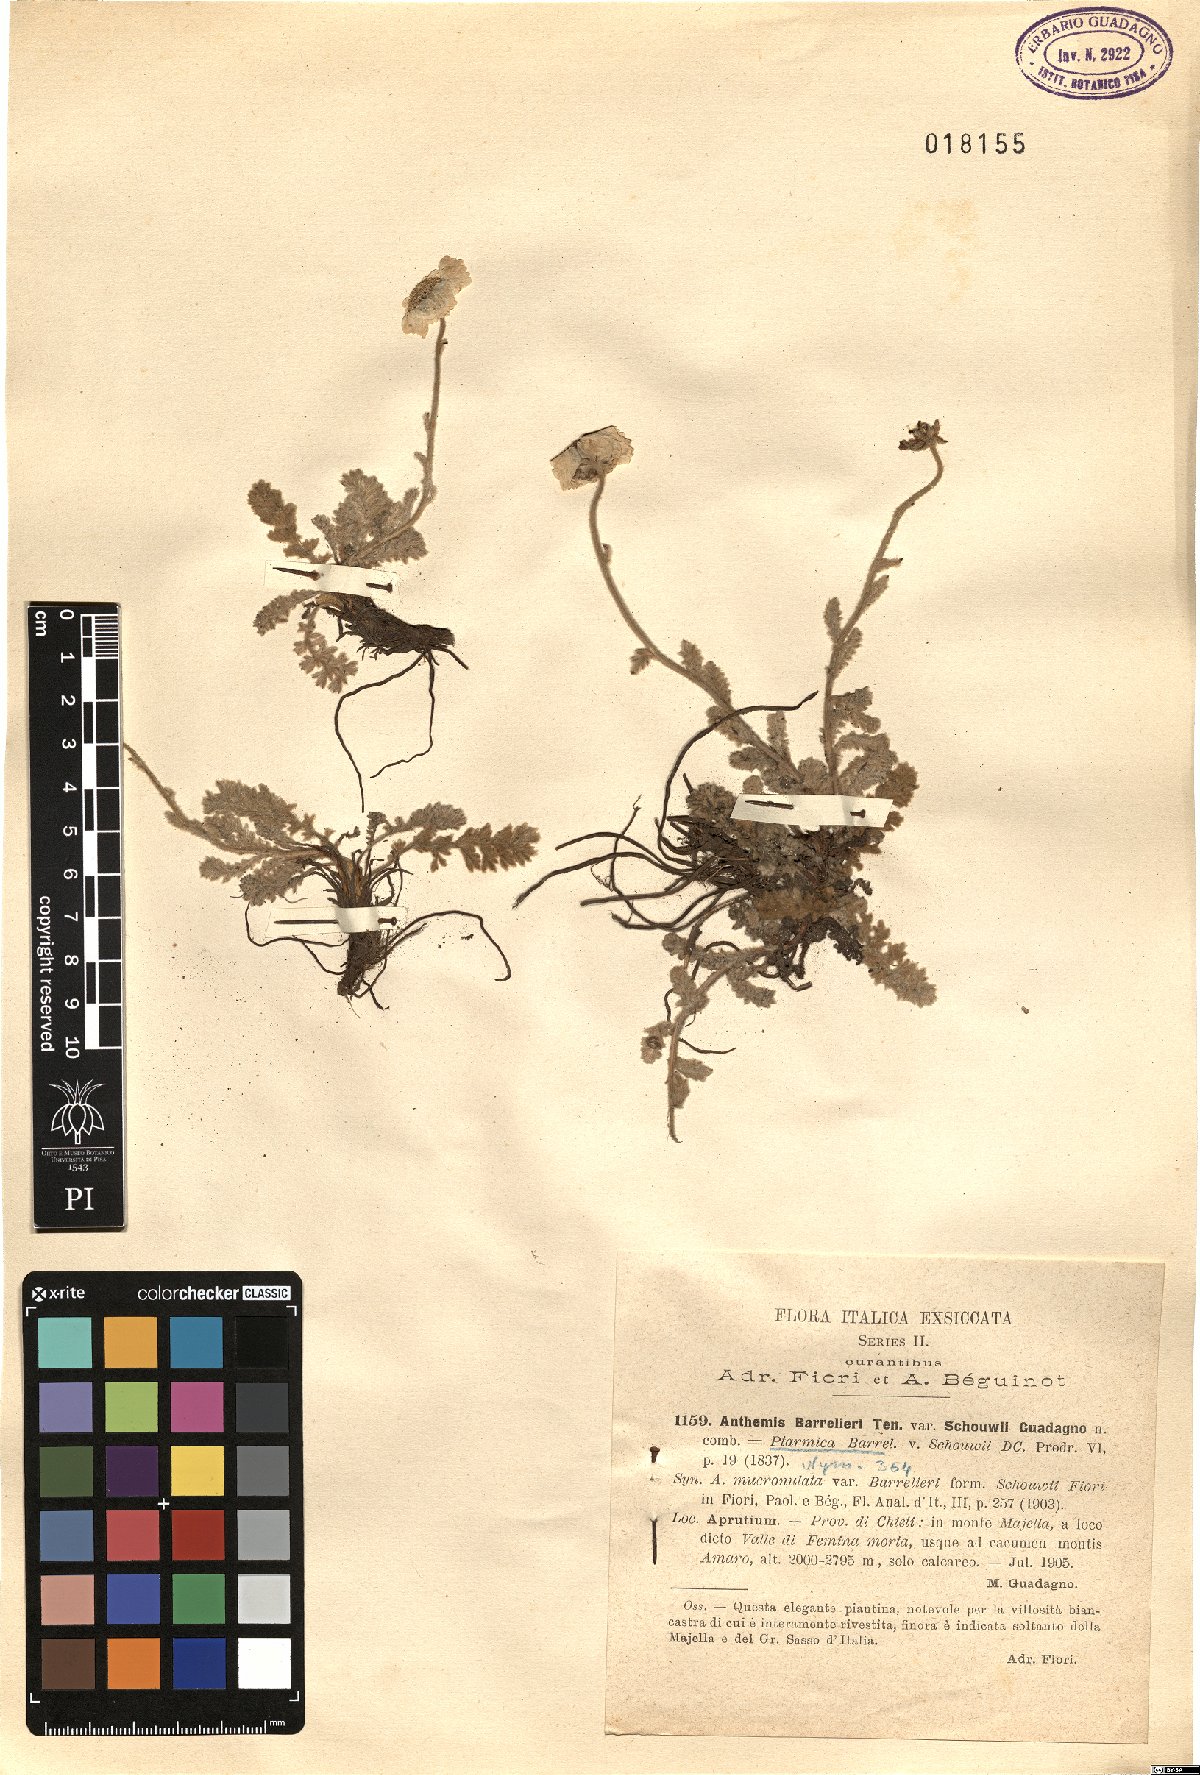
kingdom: Plantae
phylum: Tracheophyta
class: Magnoliopsida
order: Asterales
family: Asteraceae
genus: Achillea
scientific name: Achillea barrelieri
